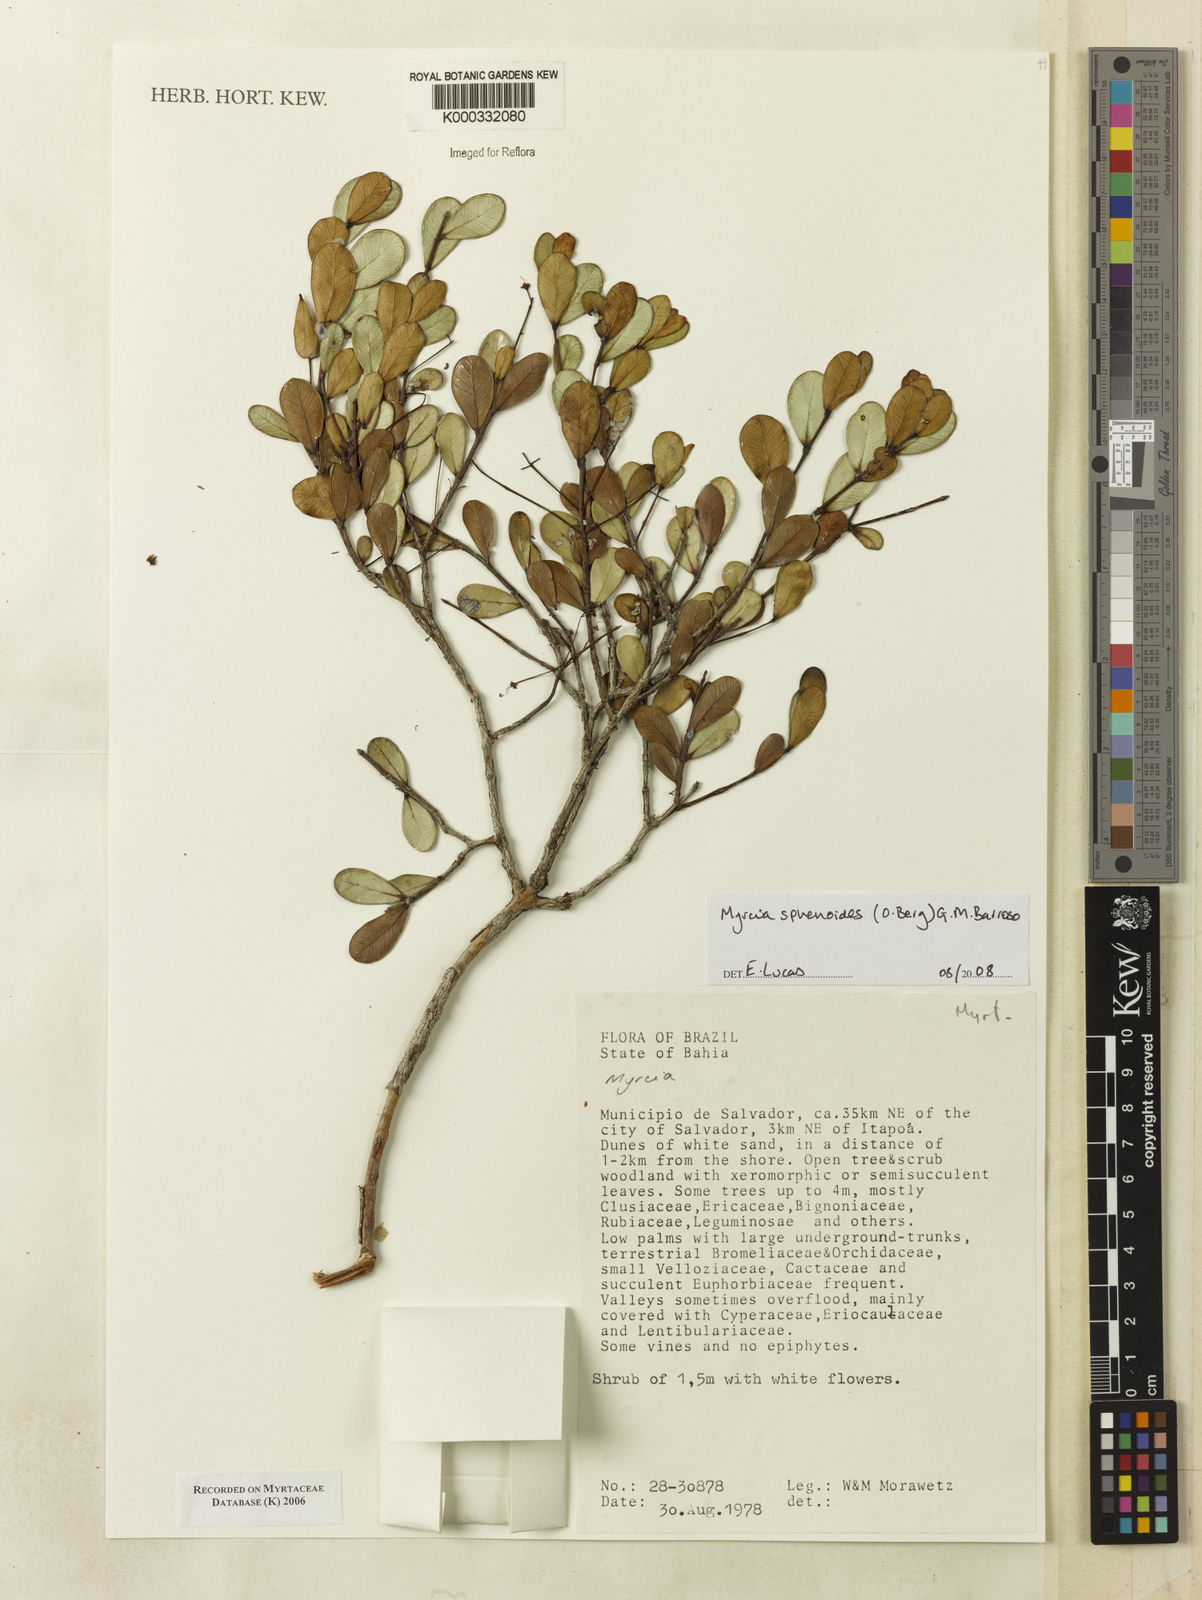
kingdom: Plantae
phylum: Tracheophyta
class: Magnoliopsida
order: Myrtales
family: Myrtaceae
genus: Myrcia
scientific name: Myrcia
